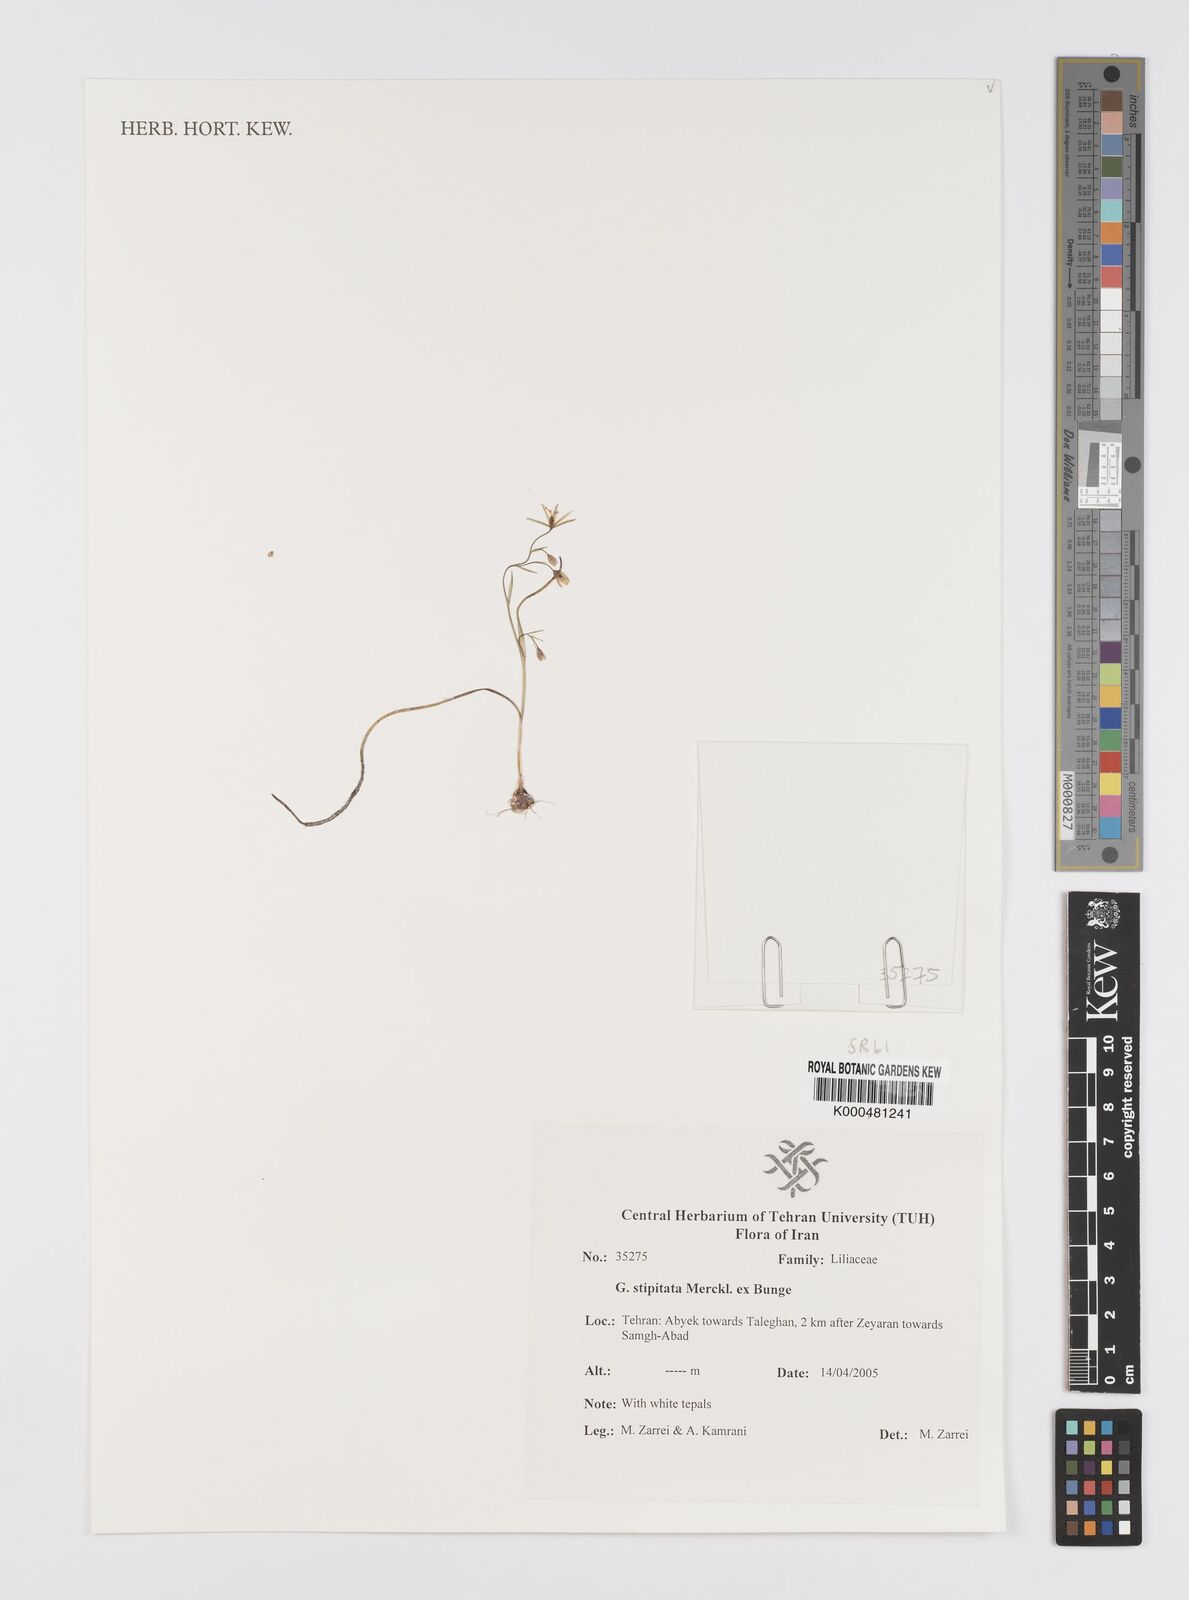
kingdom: Plantae
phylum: Tracheophyta
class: Liliopsida
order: Liliales
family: Liliaceae
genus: Gagea
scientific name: Gagea kunawurensis
